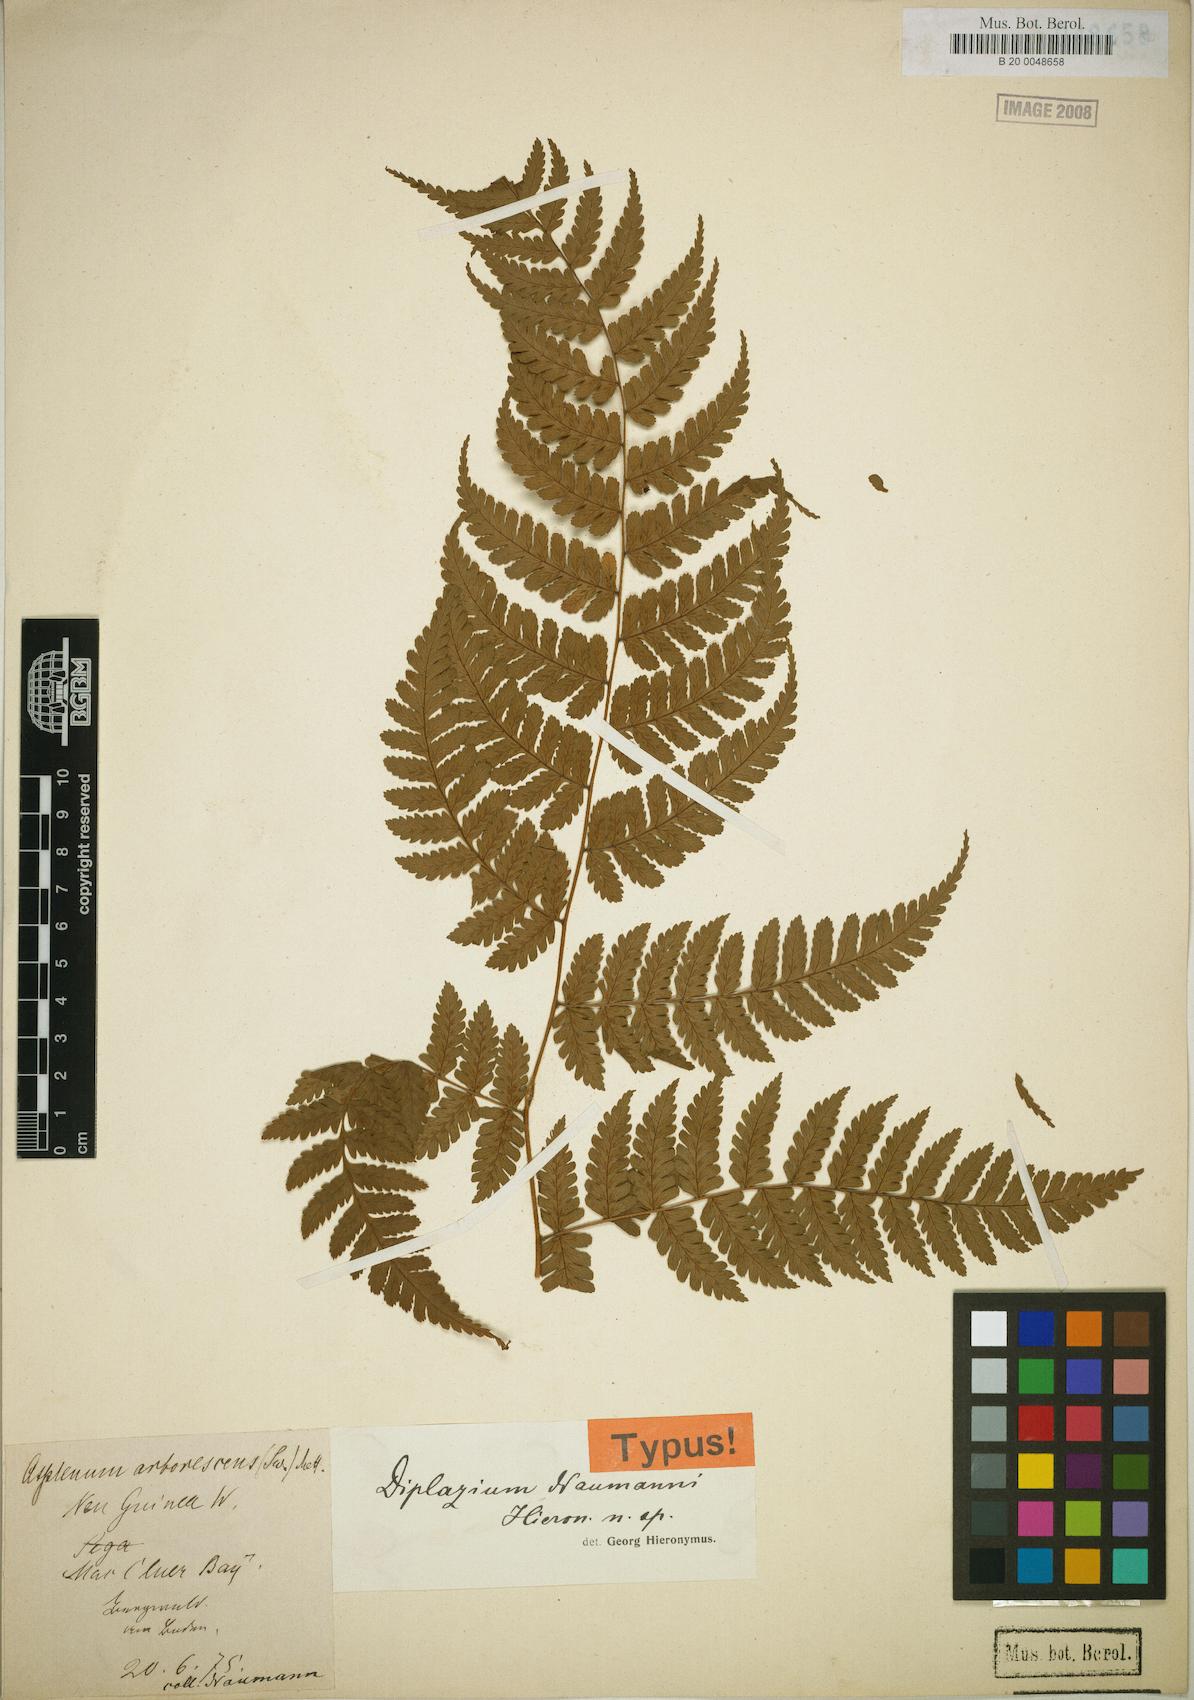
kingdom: Plantae
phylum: Tracheophyta
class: Polypodiopsida
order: Polypodiales
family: Athyriaceae
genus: Diplazium
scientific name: Diplazium prolongatum
